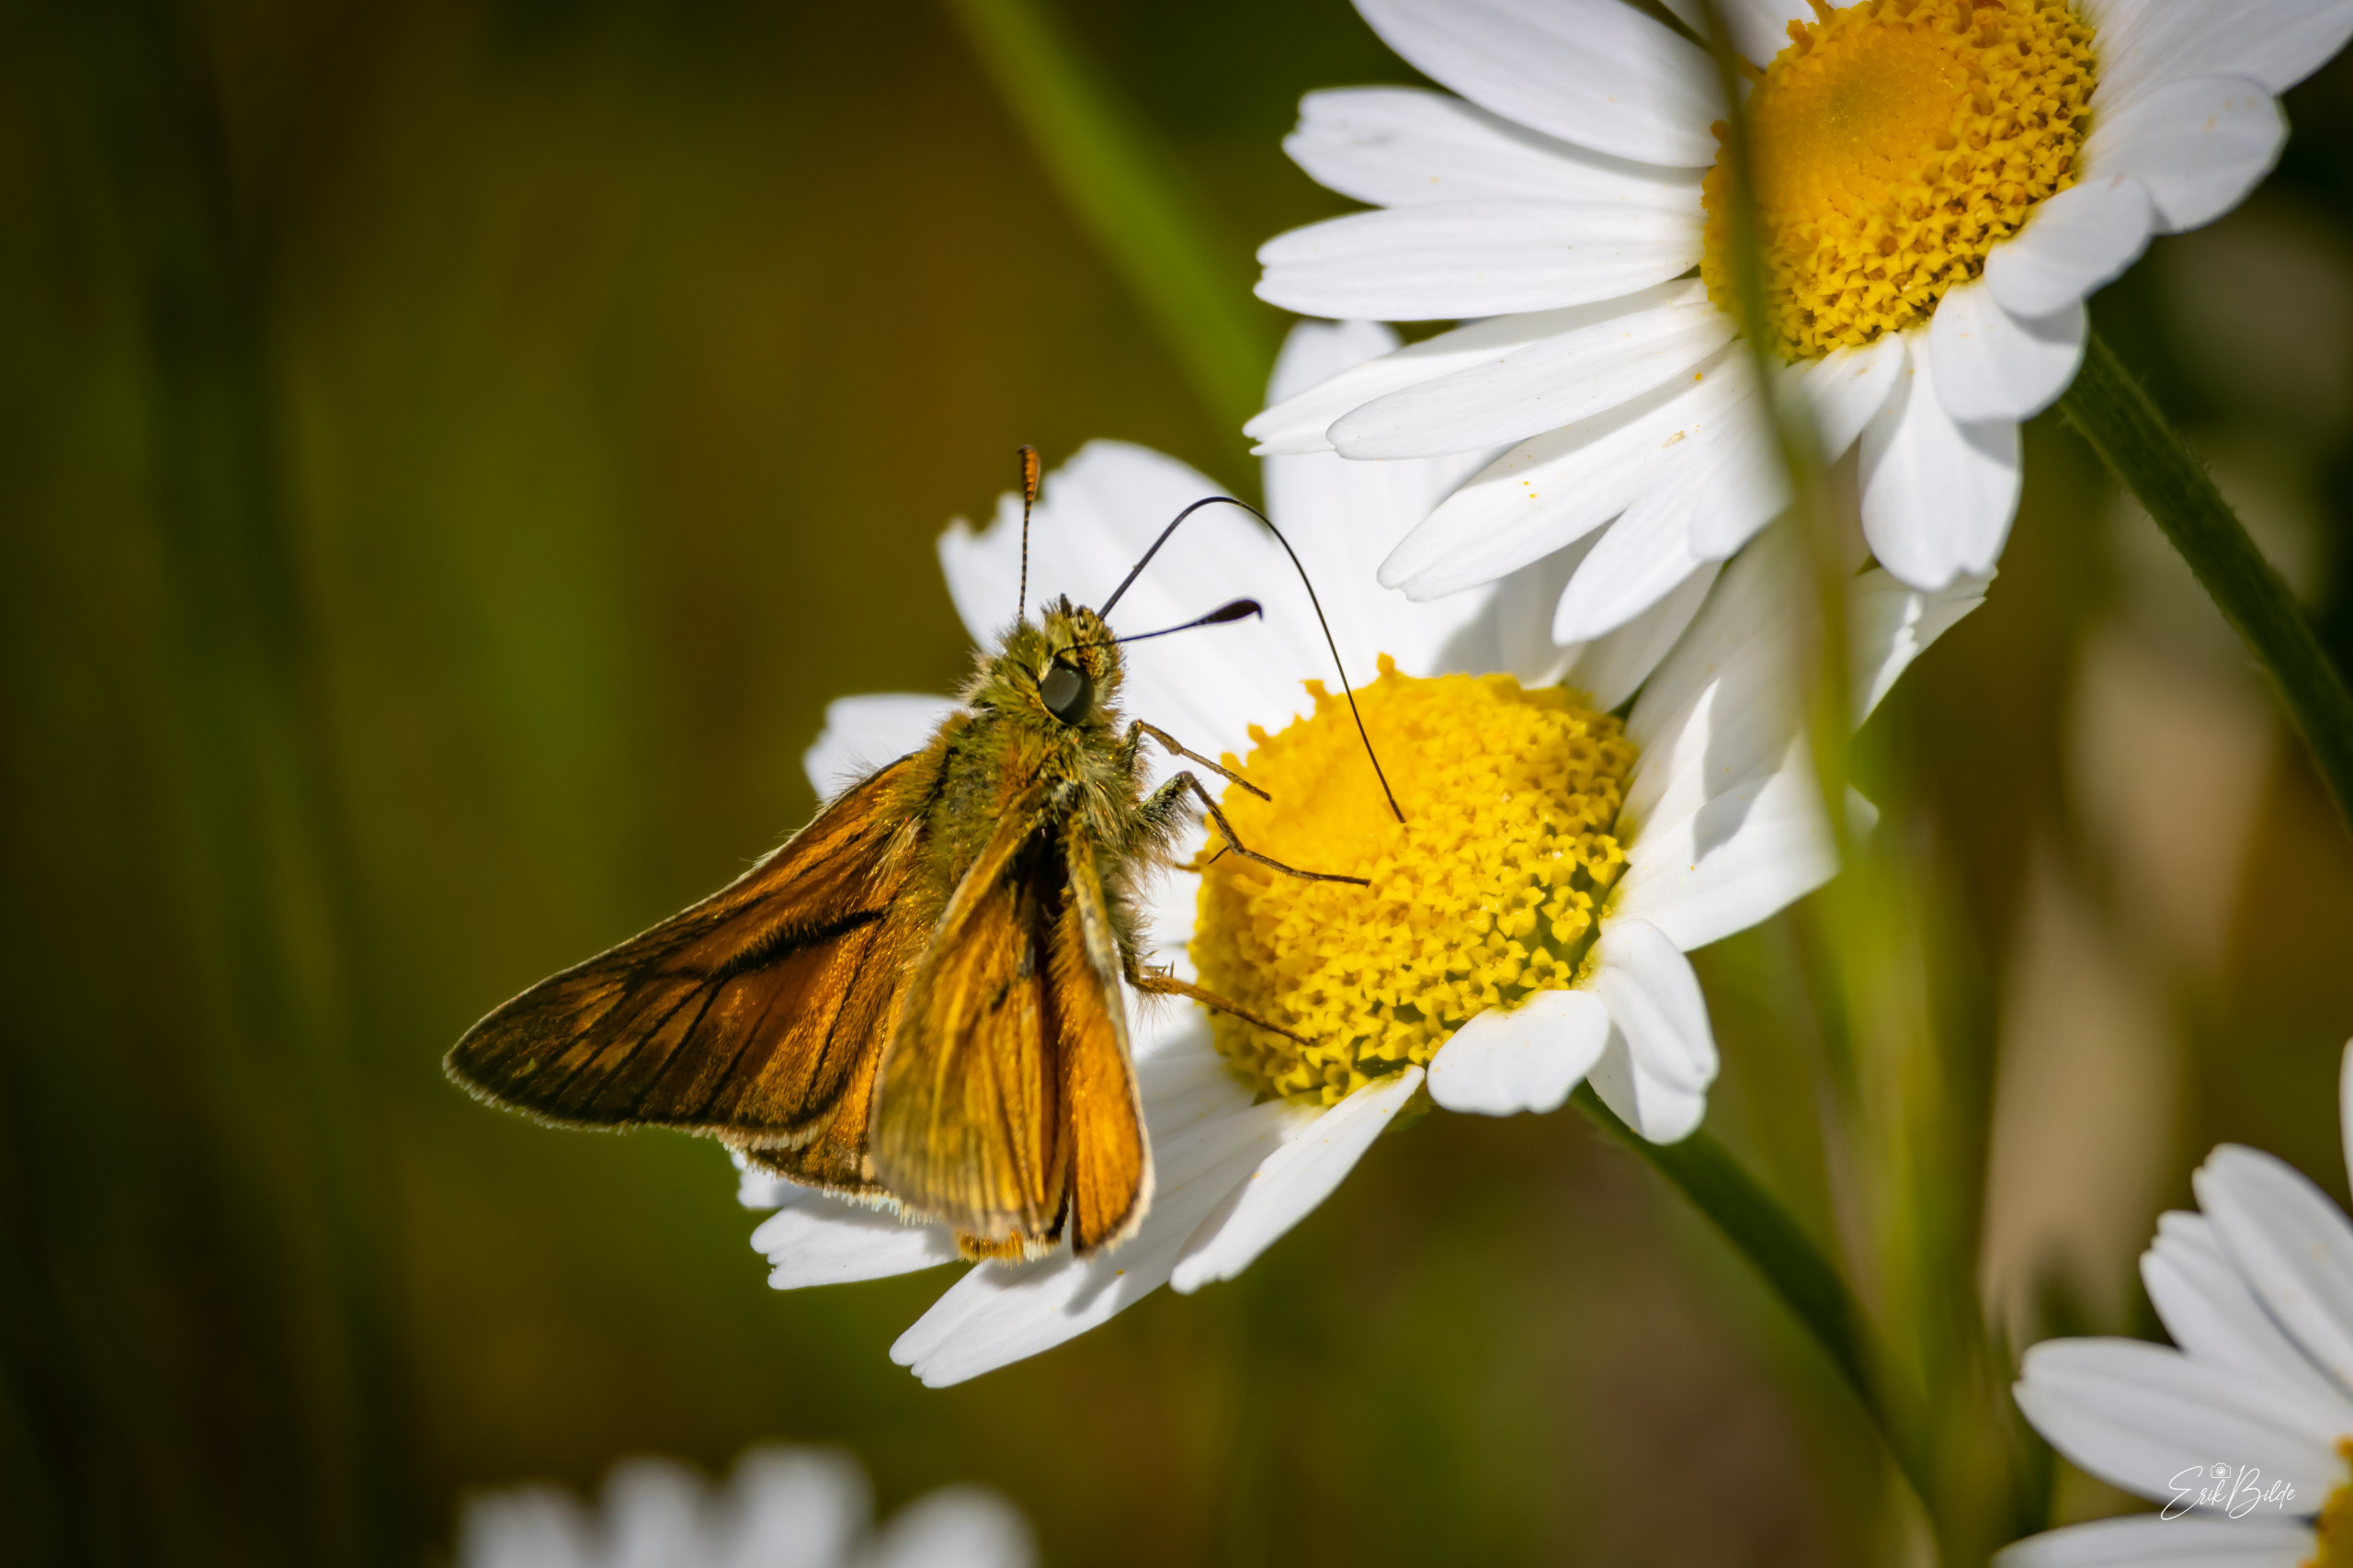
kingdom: Animalia
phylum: Arthropoda
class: Insecta
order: Lepidoptera
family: Hesperiidae
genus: Ochlodes
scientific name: Ochlodes venata
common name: Stor bredpande
